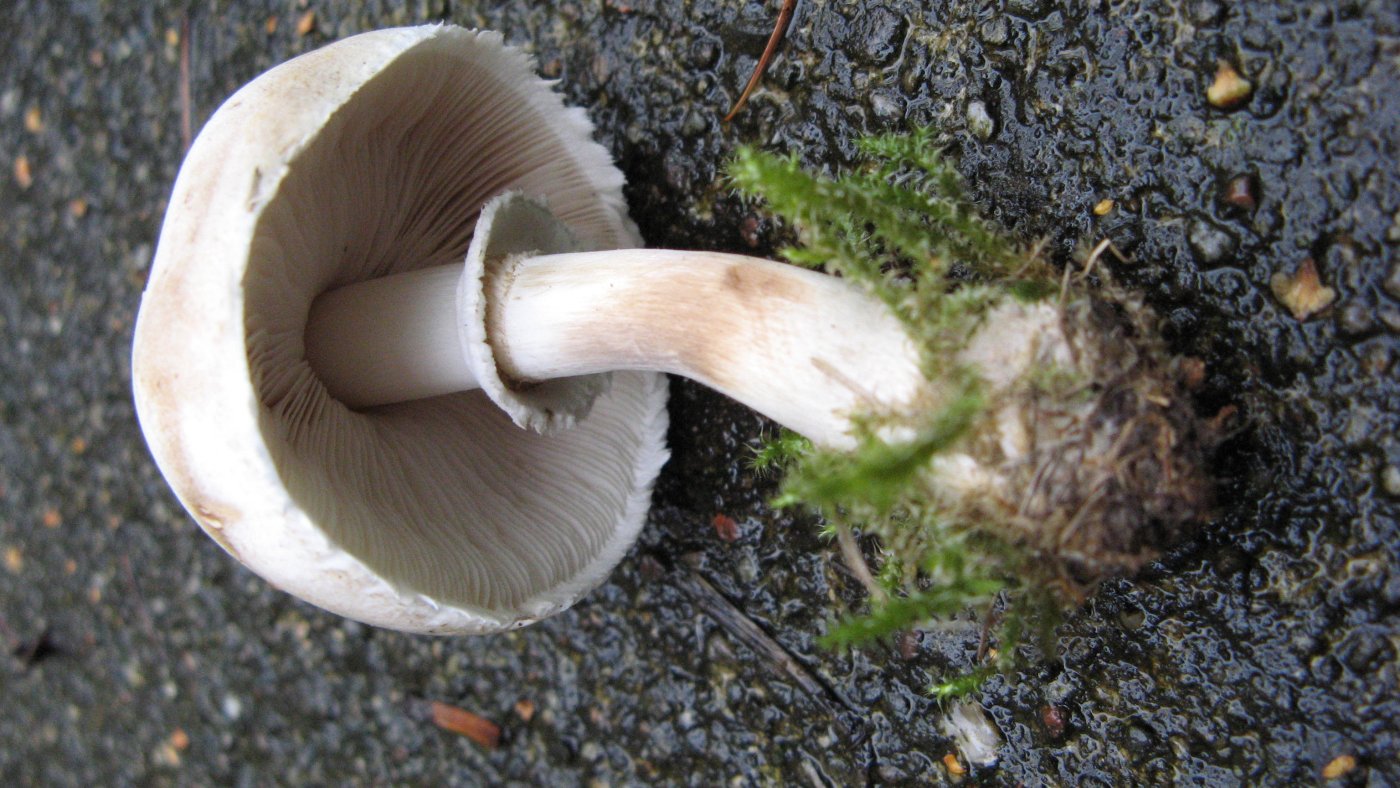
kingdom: Fungi
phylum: Basidiomycota
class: Agaricomycetes
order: Agaricales
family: Agaricaceae
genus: Leucoagaricus
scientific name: Leucoagaricus leucothites
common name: rosabladet silkehat
